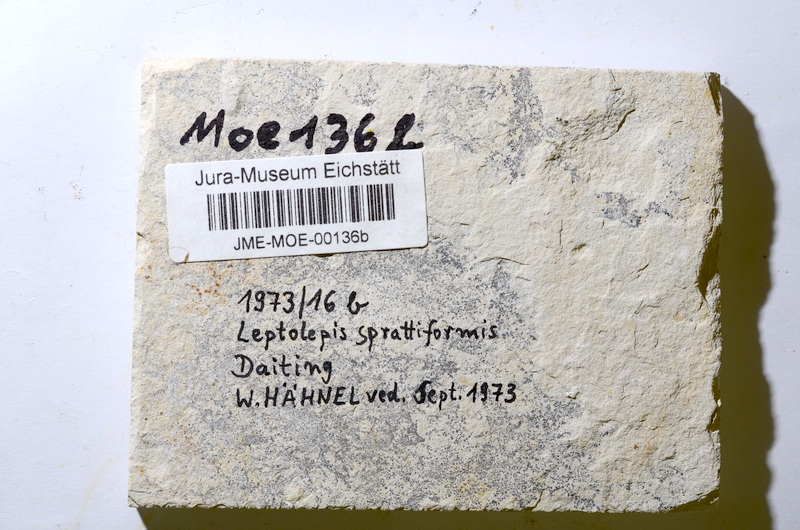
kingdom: Animalia
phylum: Chordata
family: Ascalaboidae
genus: Tharsis
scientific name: Tharsis
